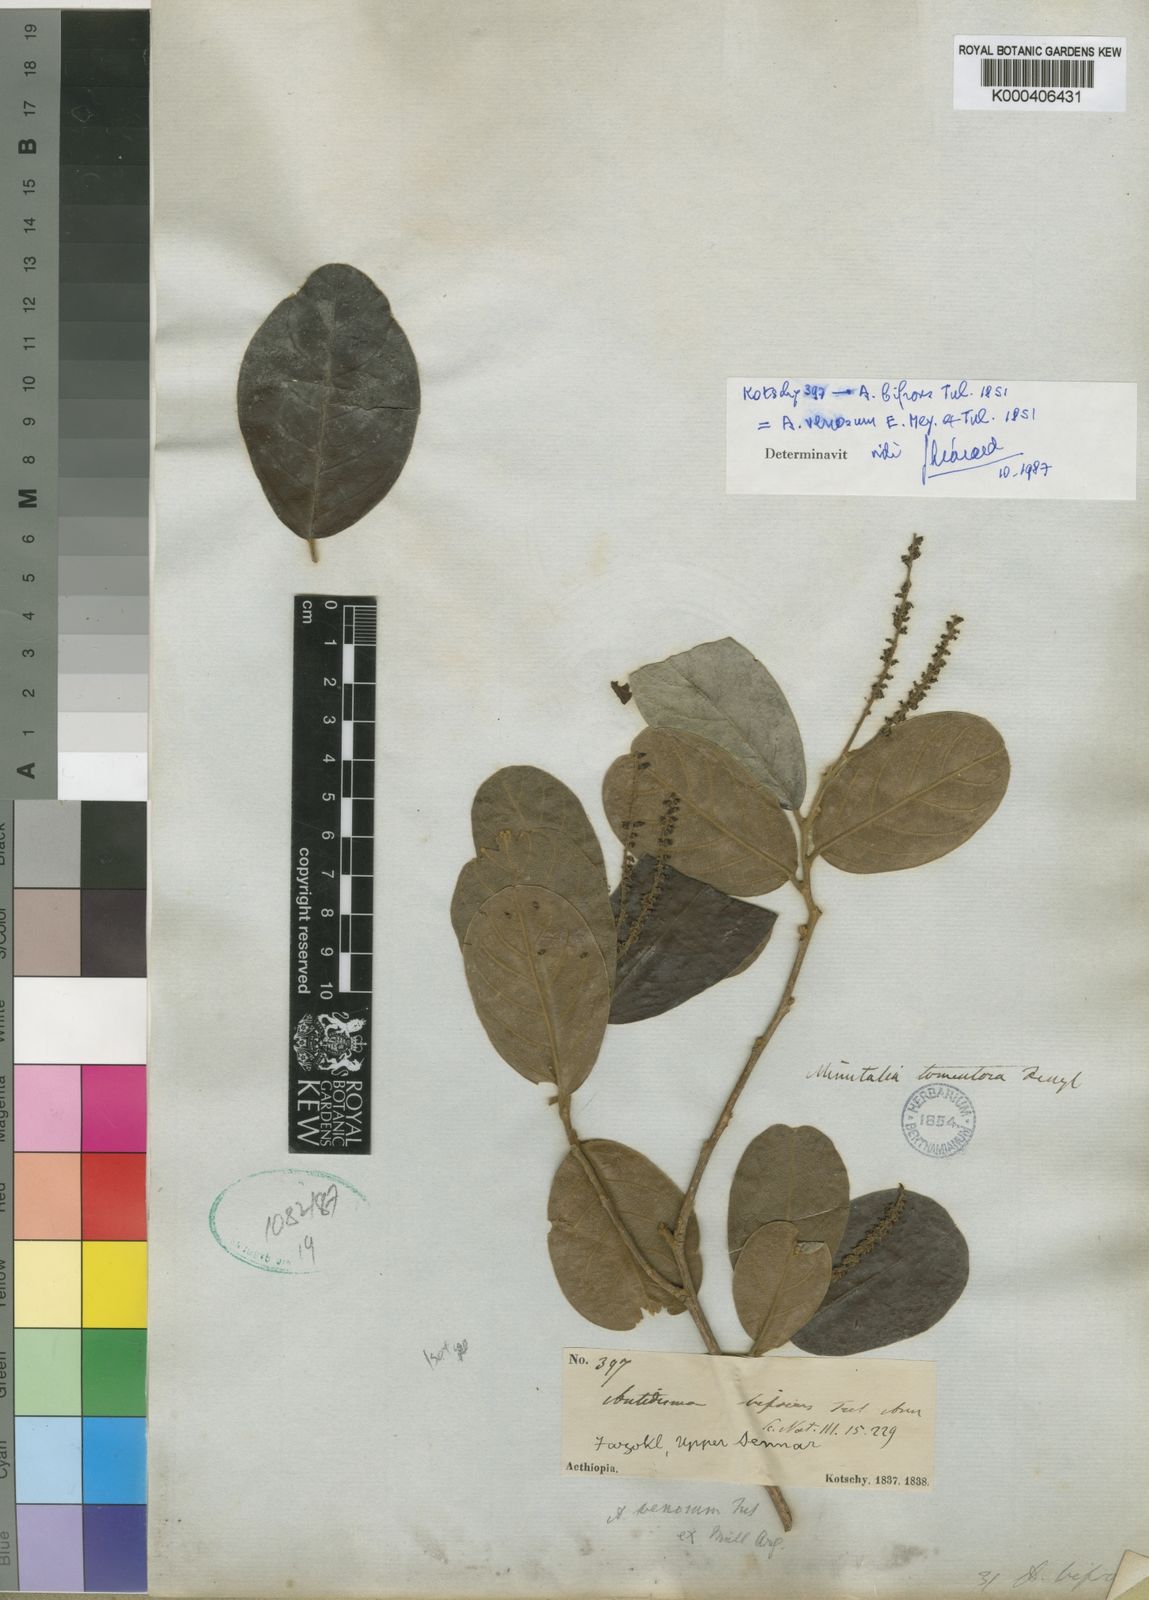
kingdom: Plantae
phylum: Tracheophyta
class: Magnoliopsida
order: Malpighiales
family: Phyllanthaceae
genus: Antidesma
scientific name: Antidesma venosum
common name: Tassel-berry
